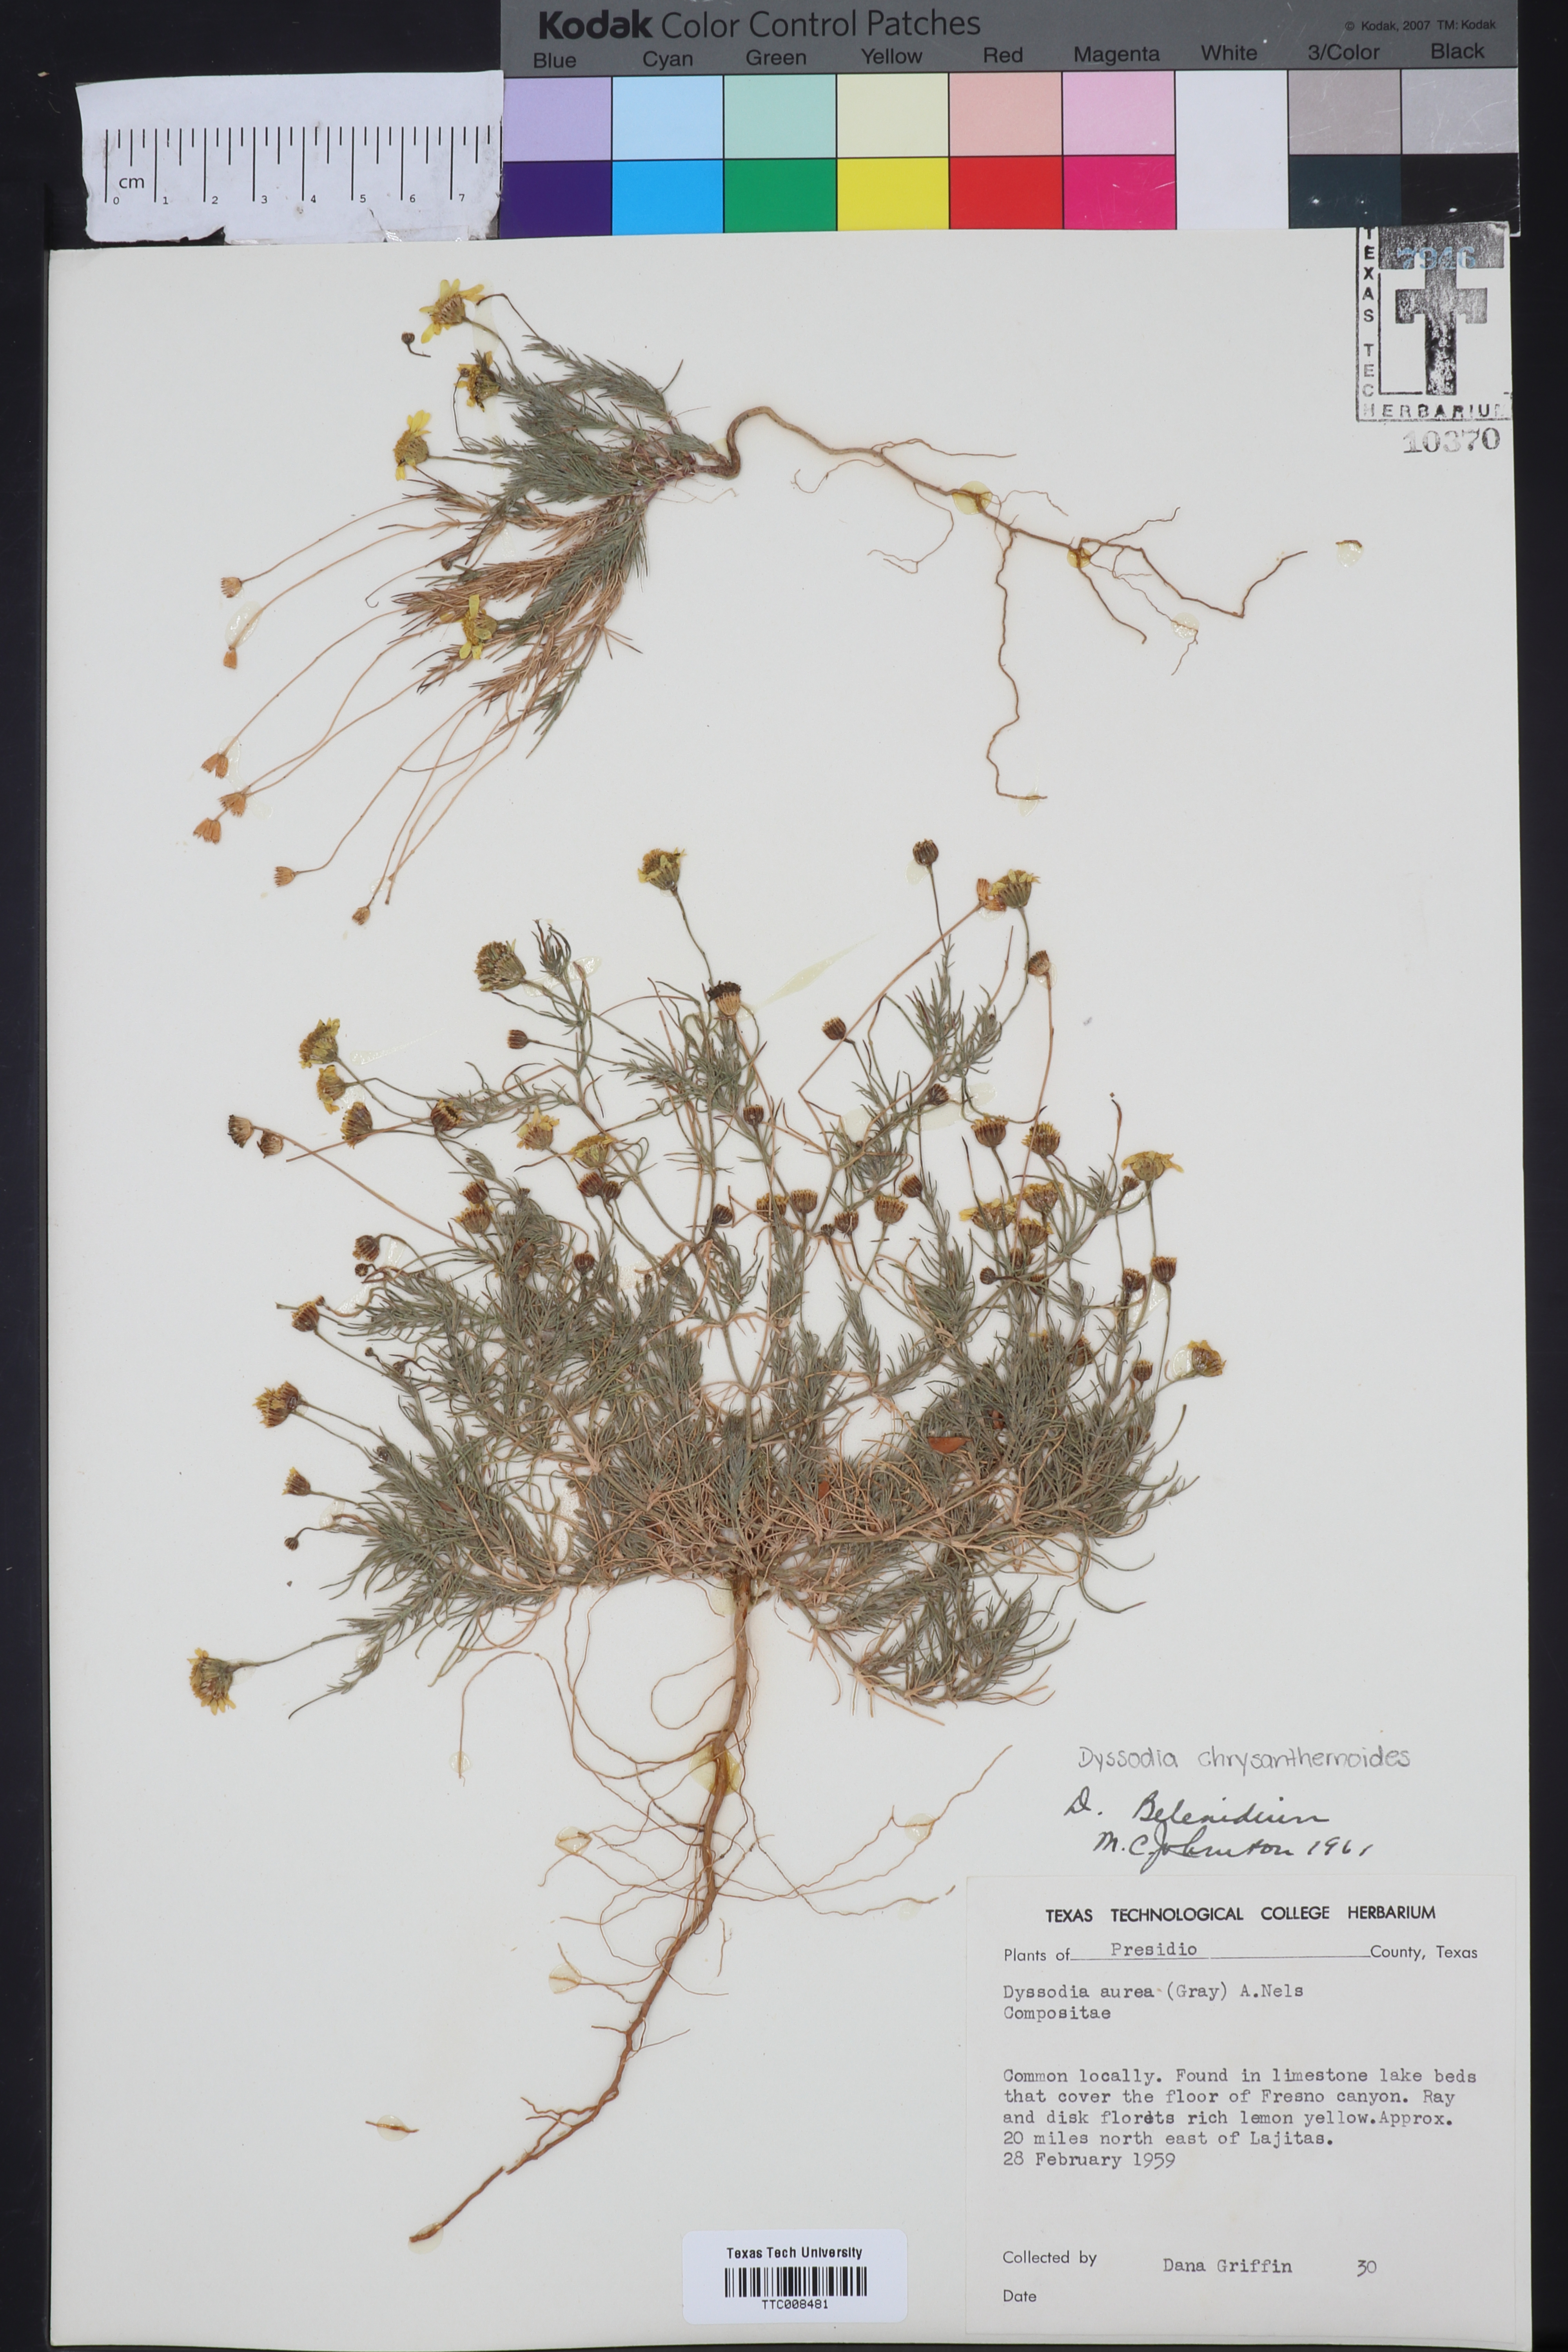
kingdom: Plantae
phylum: Tracheophyta
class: Magnoliopsida
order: Asterales
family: Asteraceae
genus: Thymophylla
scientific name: Thymophylla pentachaeta
